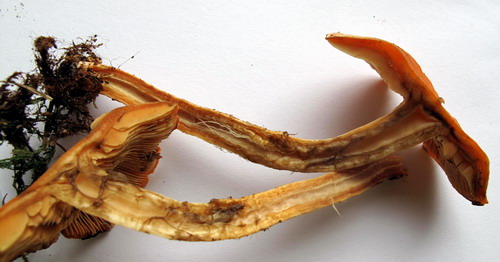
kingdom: Fungi
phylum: Basidiomycota
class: Agaricomycetes
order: Agaricales
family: Strophariaceae
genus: Pyrrhulomyces
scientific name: Pyrrhulomyces astragalinus
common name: safran-skælhat
